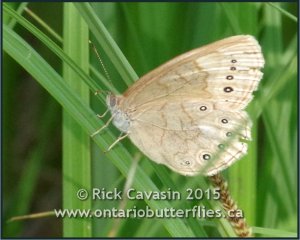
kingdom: Animalia
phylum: Arthropoda
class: Insecta
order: Lepidoptera
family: Nymphalidae
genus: Lethe
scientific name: Lethe eurydice
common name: Eyed Brown
